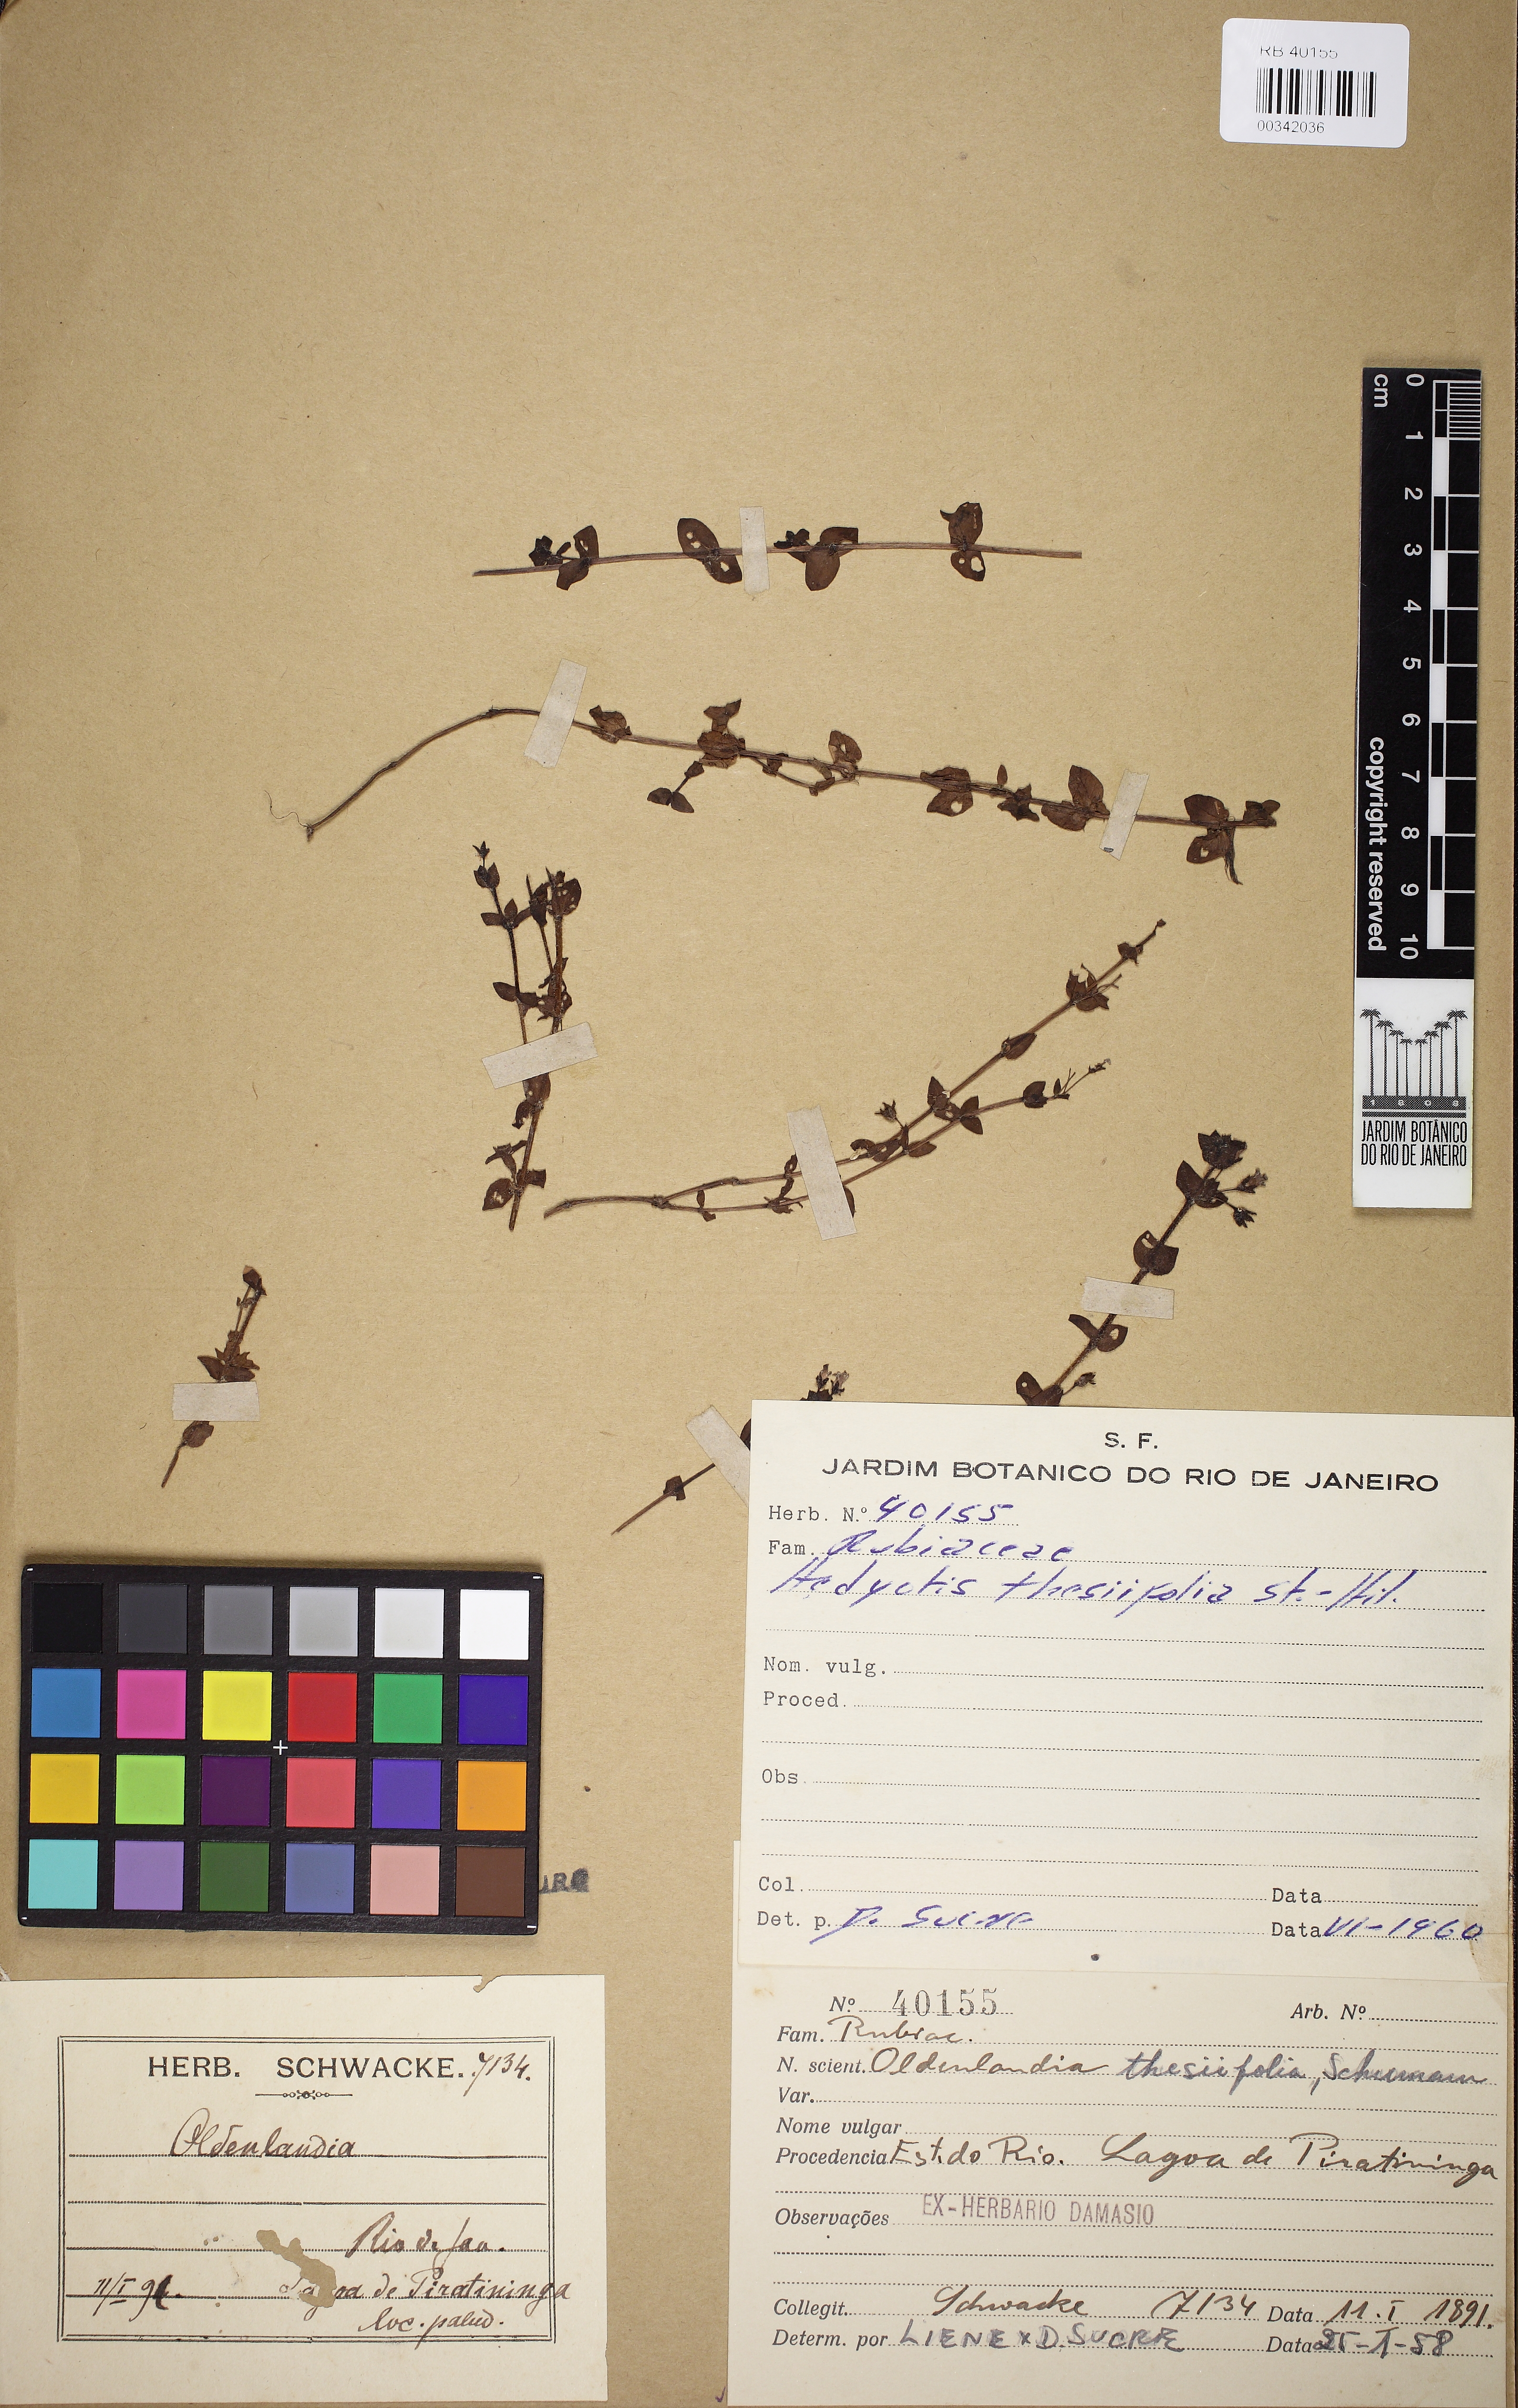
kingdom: Plantae
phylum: Tracheophyta
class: Magnoliopsida
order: Gentianales
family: Rubiaceae
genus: Oldenlandia
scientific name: Oldenlandia salzmannii
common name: Salzmann's mille graines
